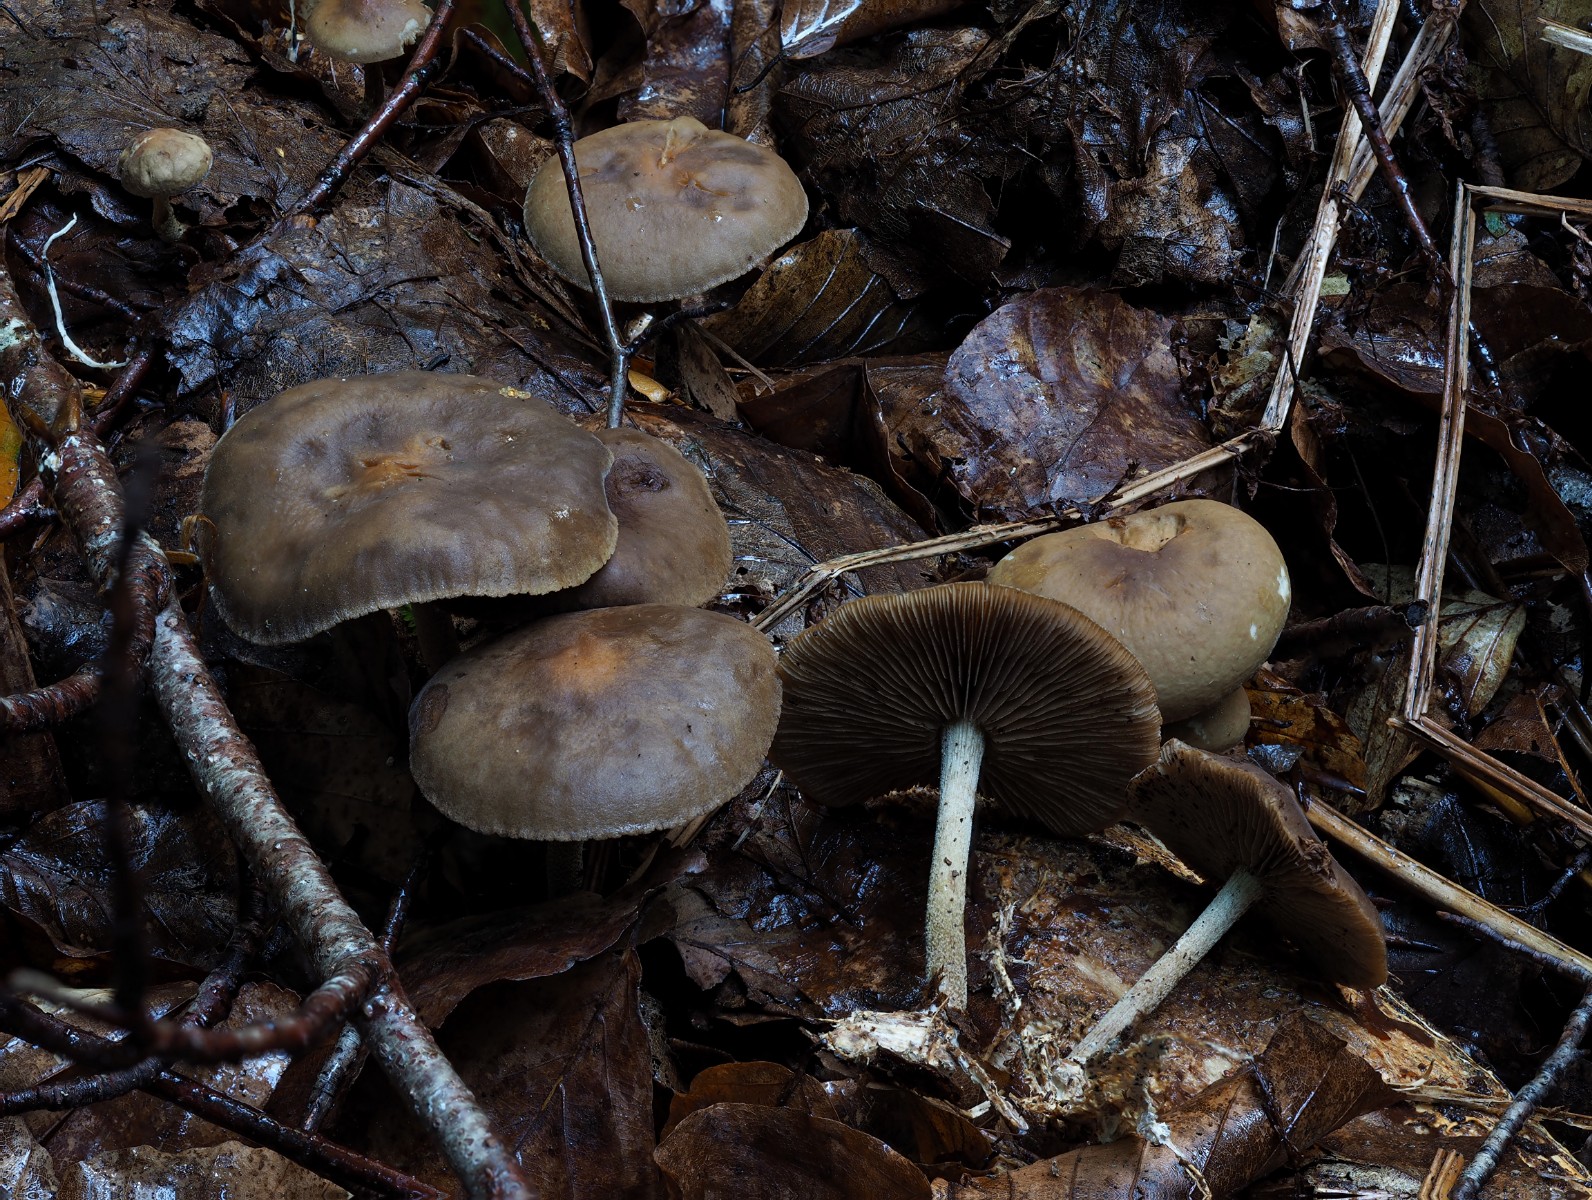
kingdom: Fungi
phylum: Basidiomycota
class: Agaricomycetes
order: Agaricales
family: Strophariaceae
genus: Agrocybe
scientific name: Agrocybe firma
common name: tobaksbrun agerhat
